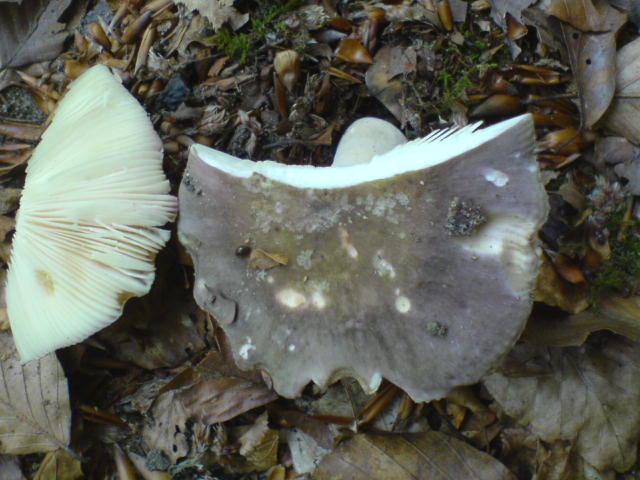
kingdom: Fungi
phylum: Basidiomycota
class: Agaricomycetes
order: Russulales
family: Russulaceae
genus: Russula
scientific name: Russula cyanoxantha
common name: broget skørhat
